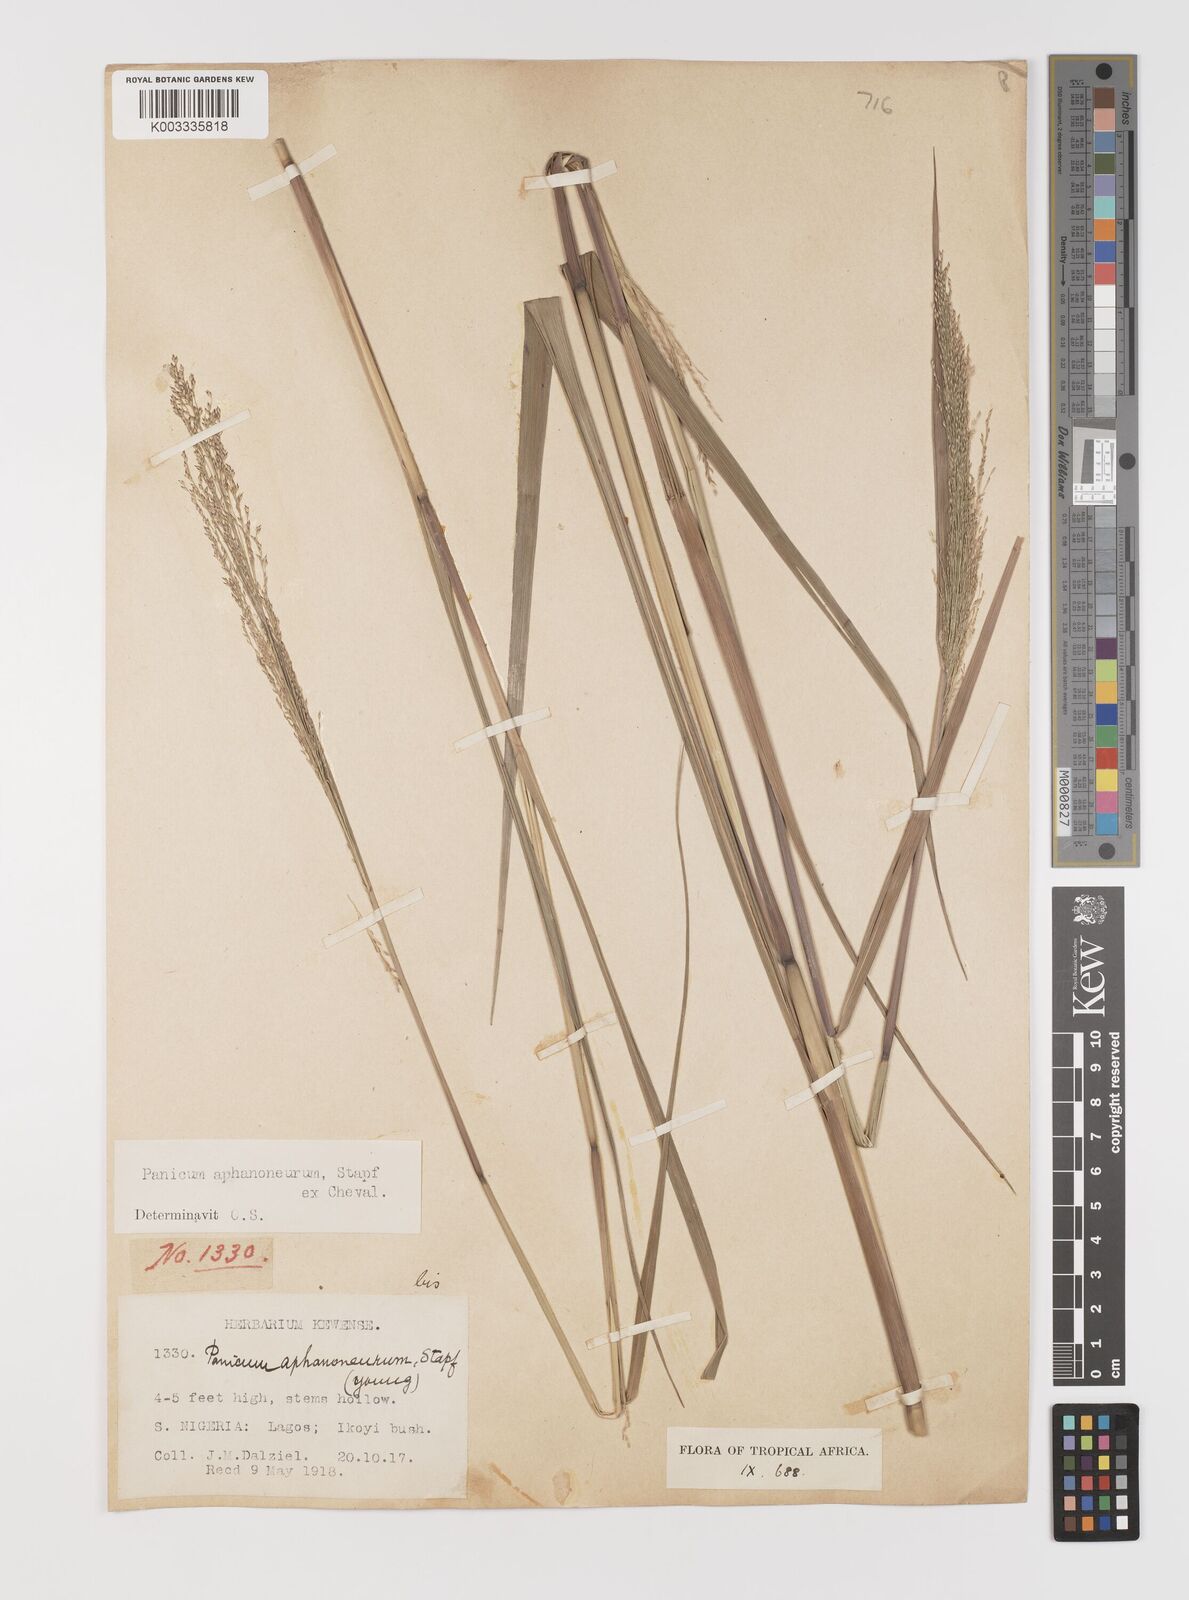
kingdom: Plantae
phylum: Tracheophyta
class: Liliopsida
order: Poales
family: Poaceae
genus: Panicum
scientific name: Panicum fluviicola
